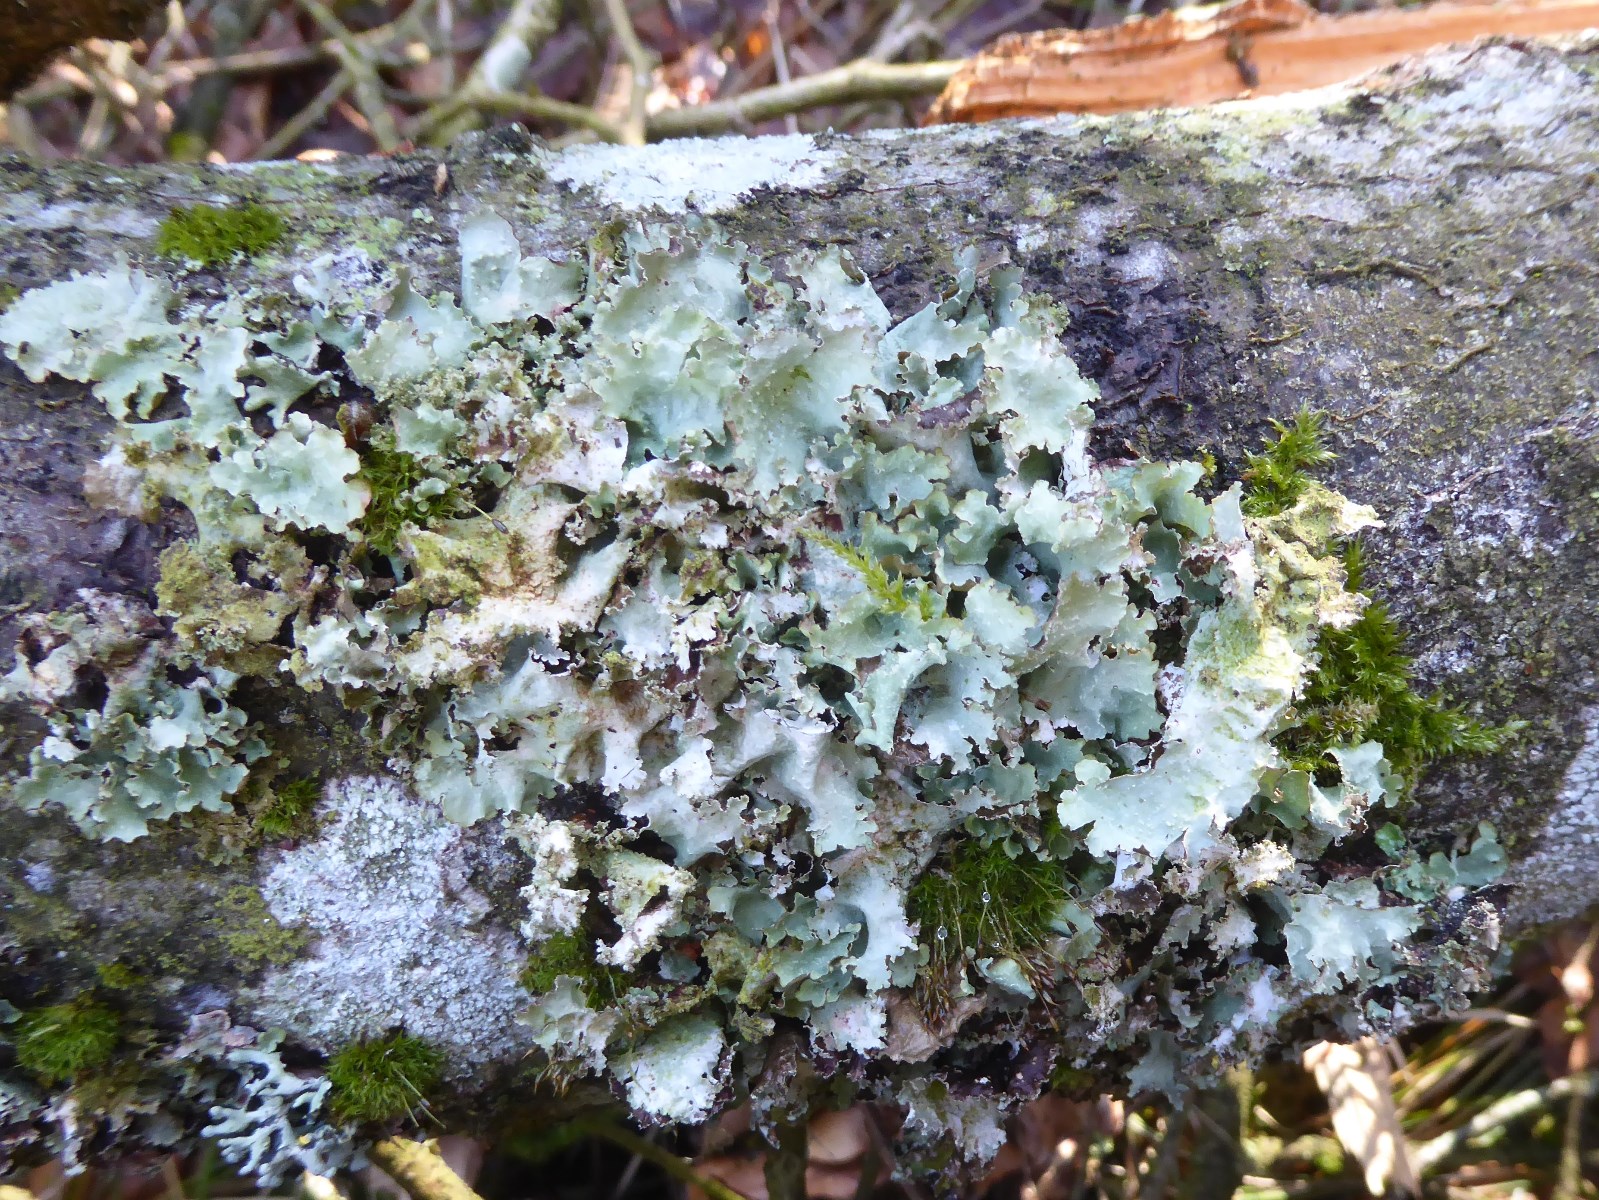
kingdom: Fungi
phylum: Ascomycota
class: Lecanoromycetes
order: Lecanorales
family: Parmeliaceae
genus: Platismatia
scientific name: Platismatia glauca
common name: blågrå papirlav
